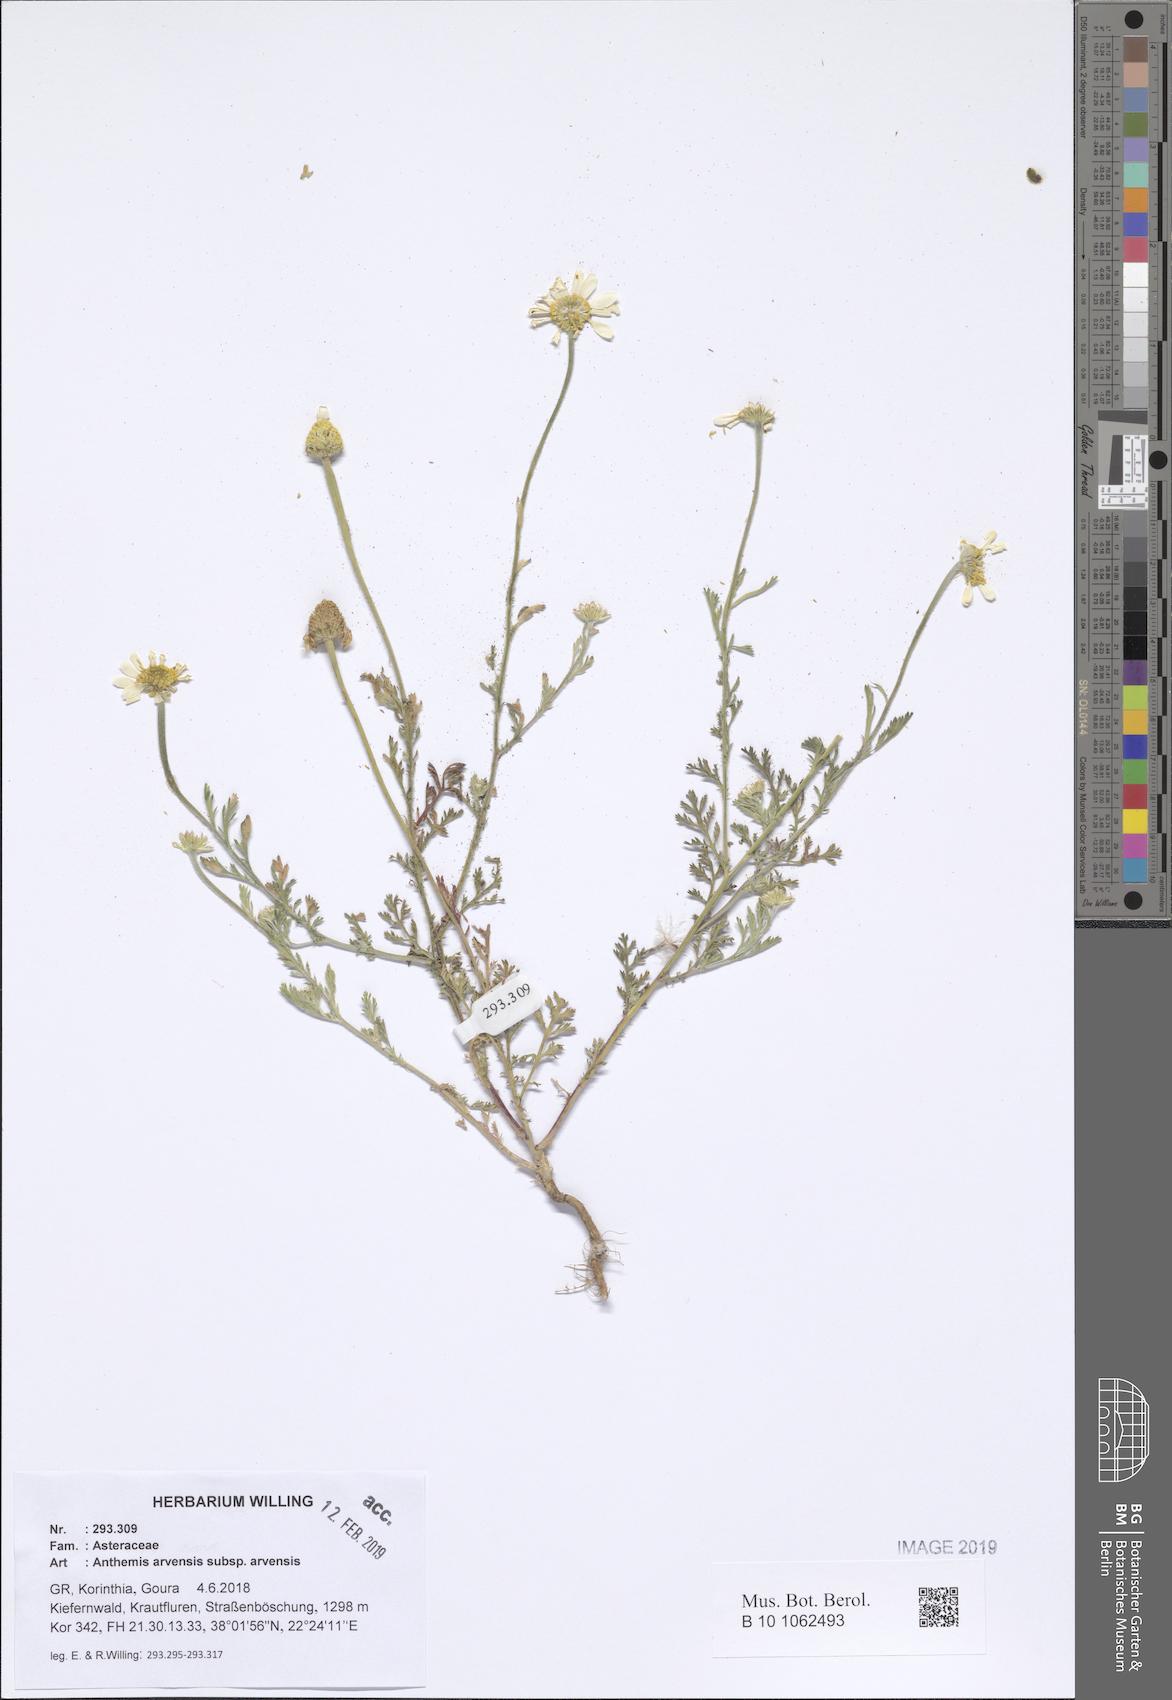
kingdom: Plantae
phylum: Tracheophyta
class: Magnoliopsida
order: Asterales
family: Asteraceae
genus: Anthemis
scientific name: Anthemis arvensis
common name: Corn chamomile
